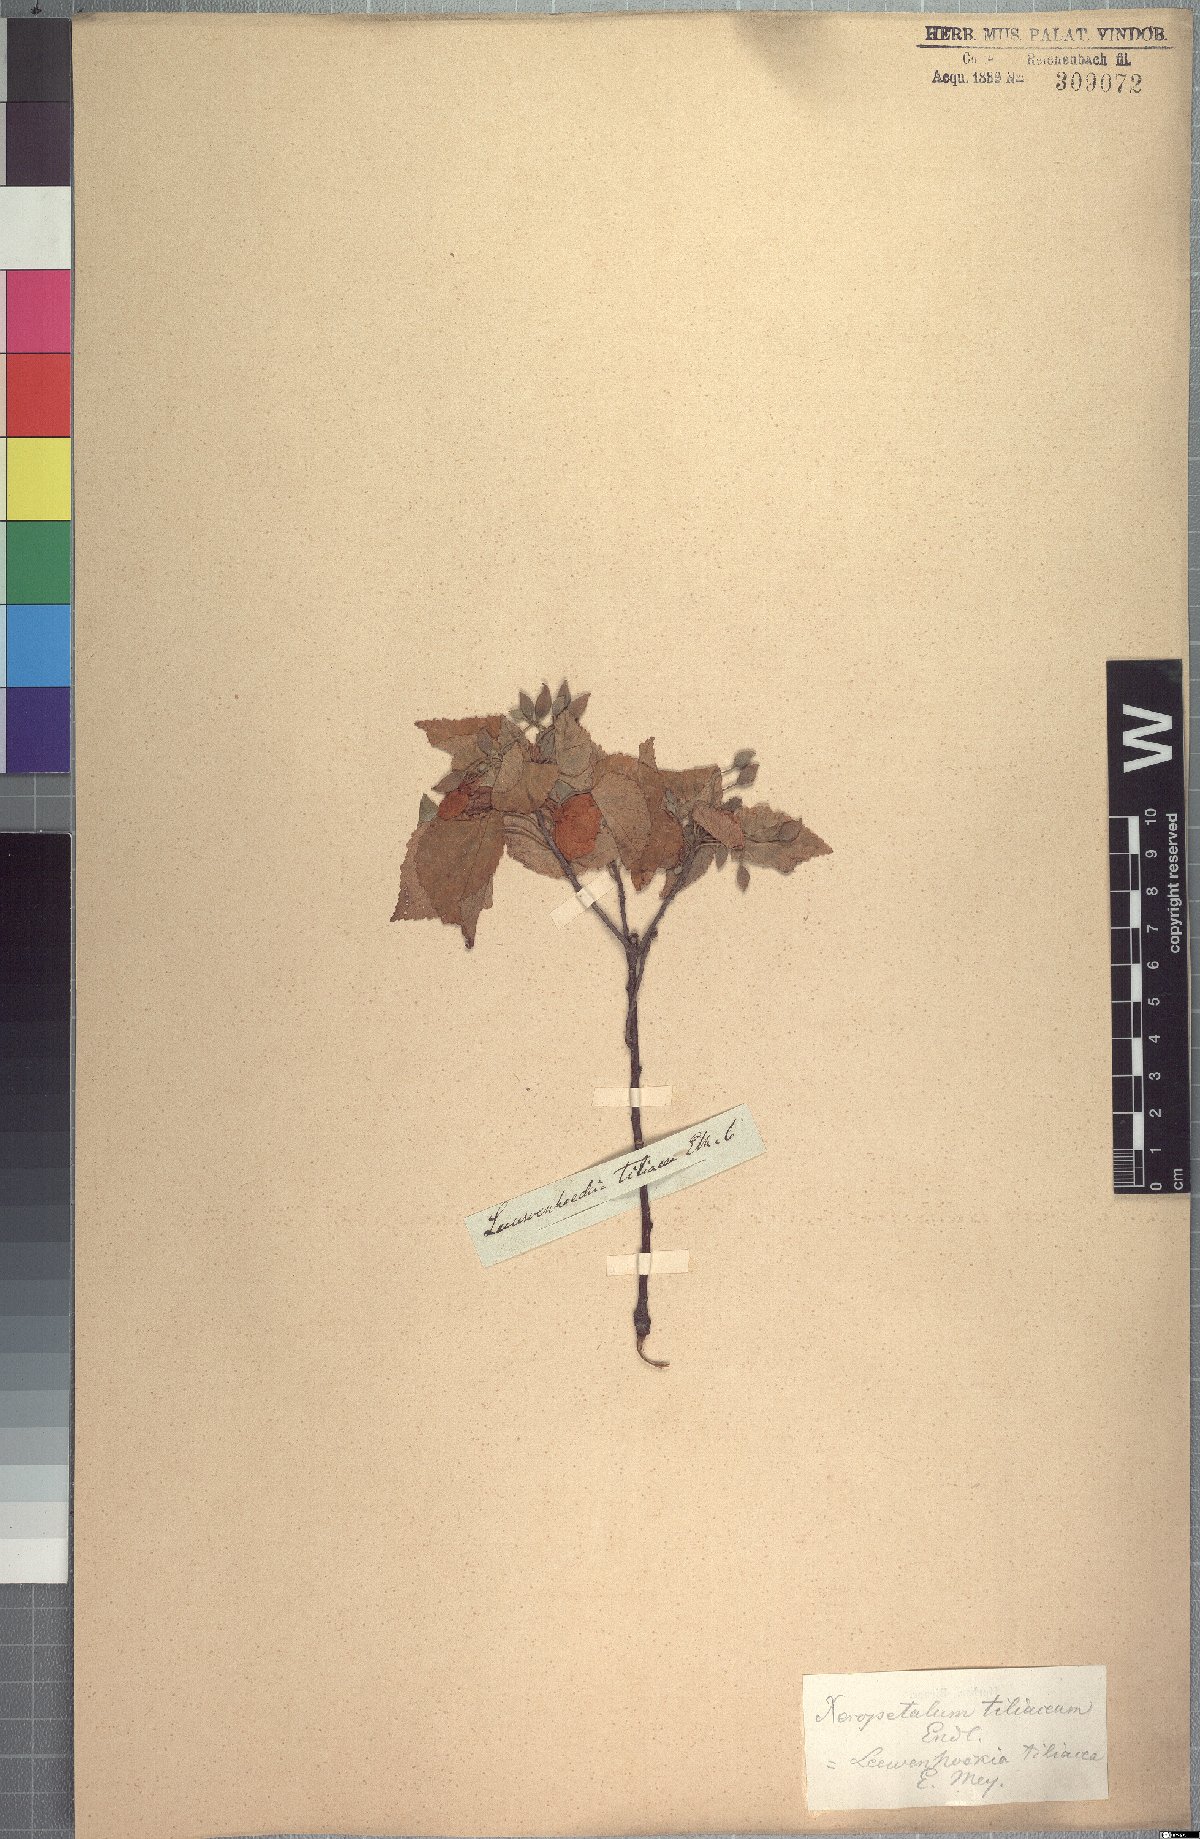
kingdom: Plantae
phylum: Tracheophyta
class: Magnoliopsida
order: Malvales
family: Malvaceae
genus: Dombeya
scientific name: Dombeya tiliacea
